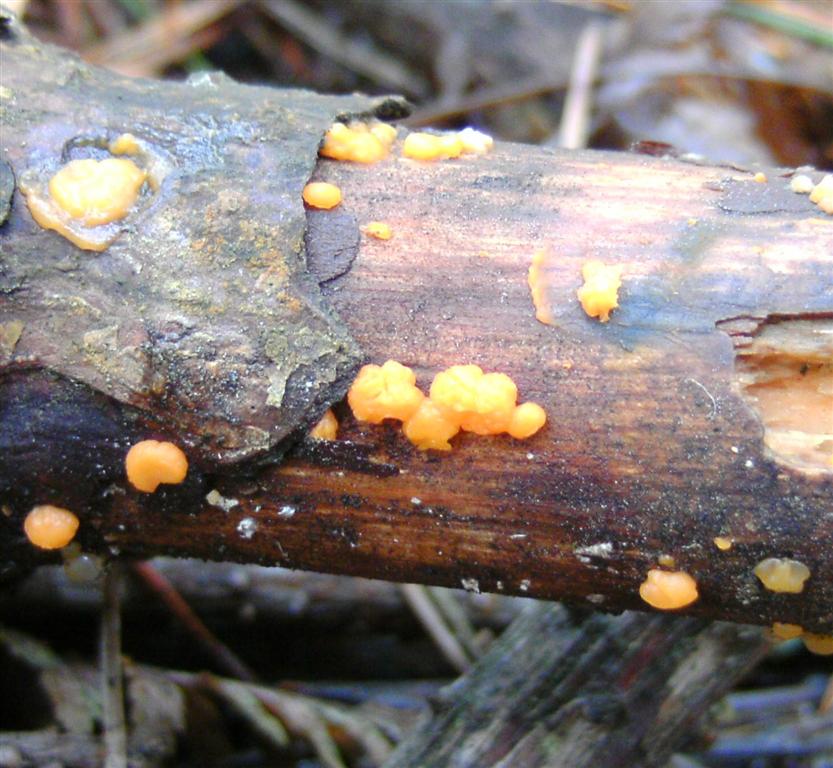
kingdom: Fungi
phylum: Basidiomycota
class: Dacrymycetes
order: Dacrymycetales
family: Dacrymycetaceae
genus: Dacrymyces
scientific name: Dacrymyces stillatus
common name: almindelig tåresvamp
